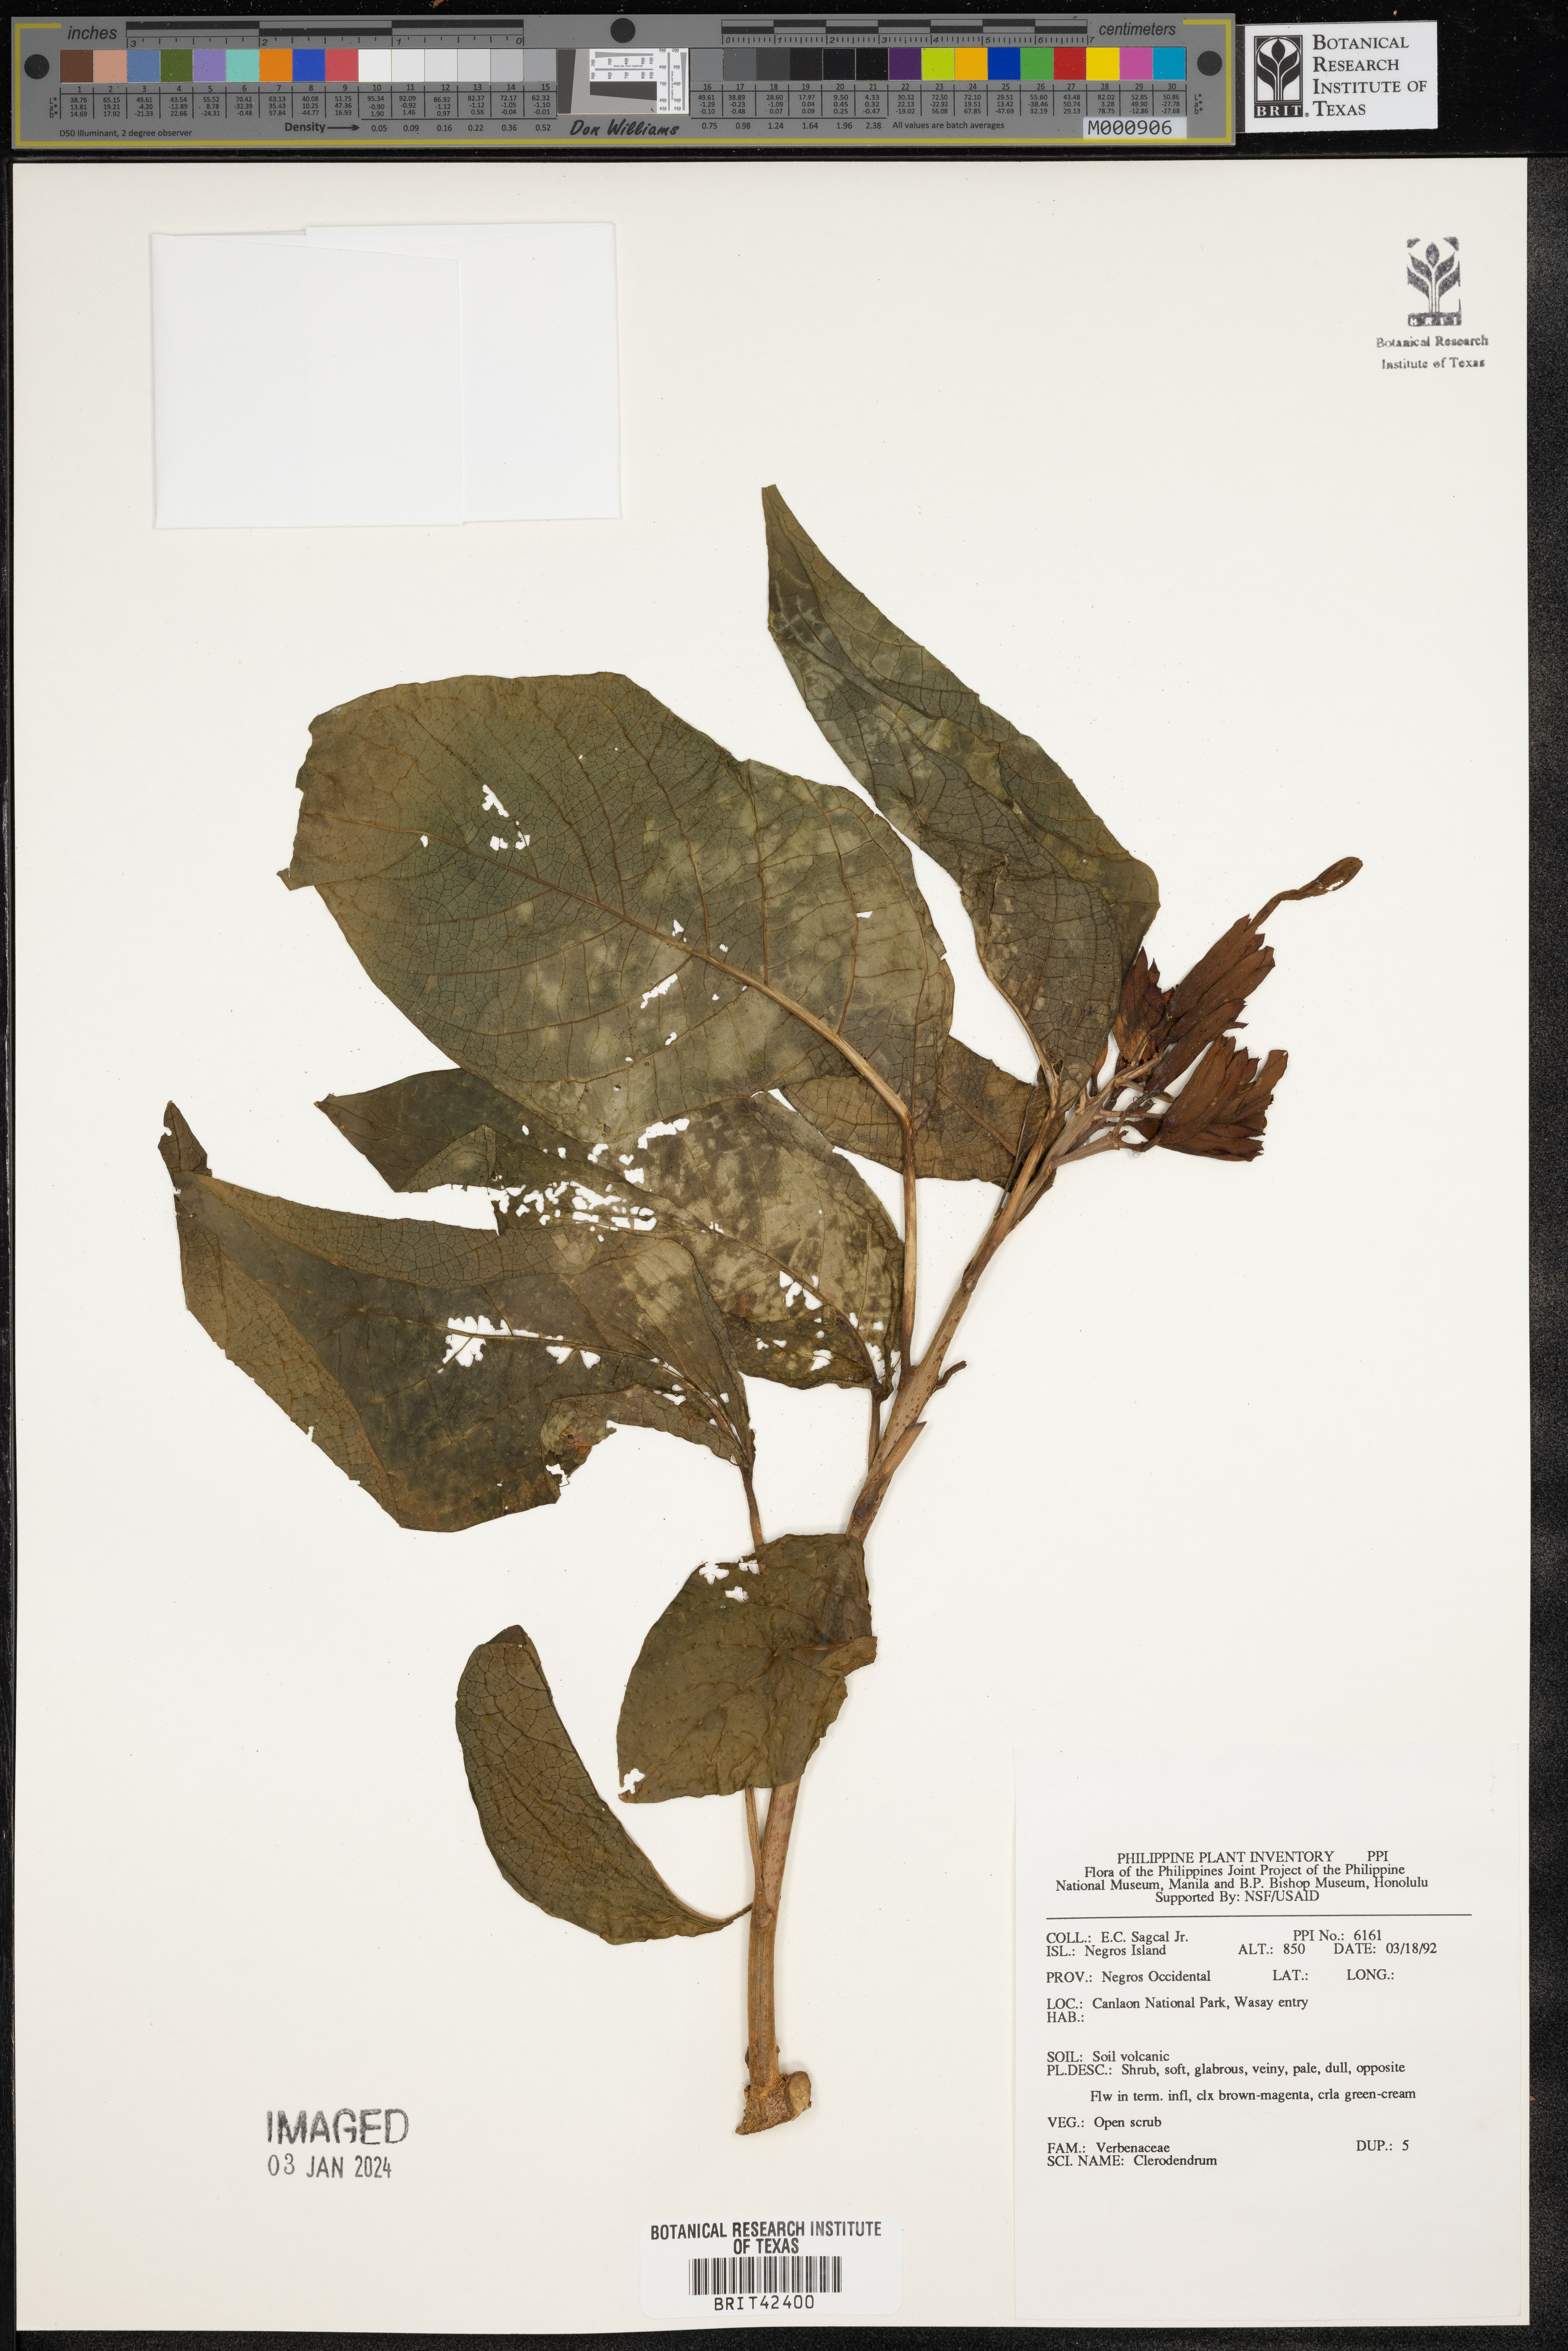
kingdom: Plantae
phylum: Tracheophyta
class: Magnoliopsida
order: Lamiales
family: Lamiaceae
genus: Clerodendrum
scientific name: Clerodendrum
